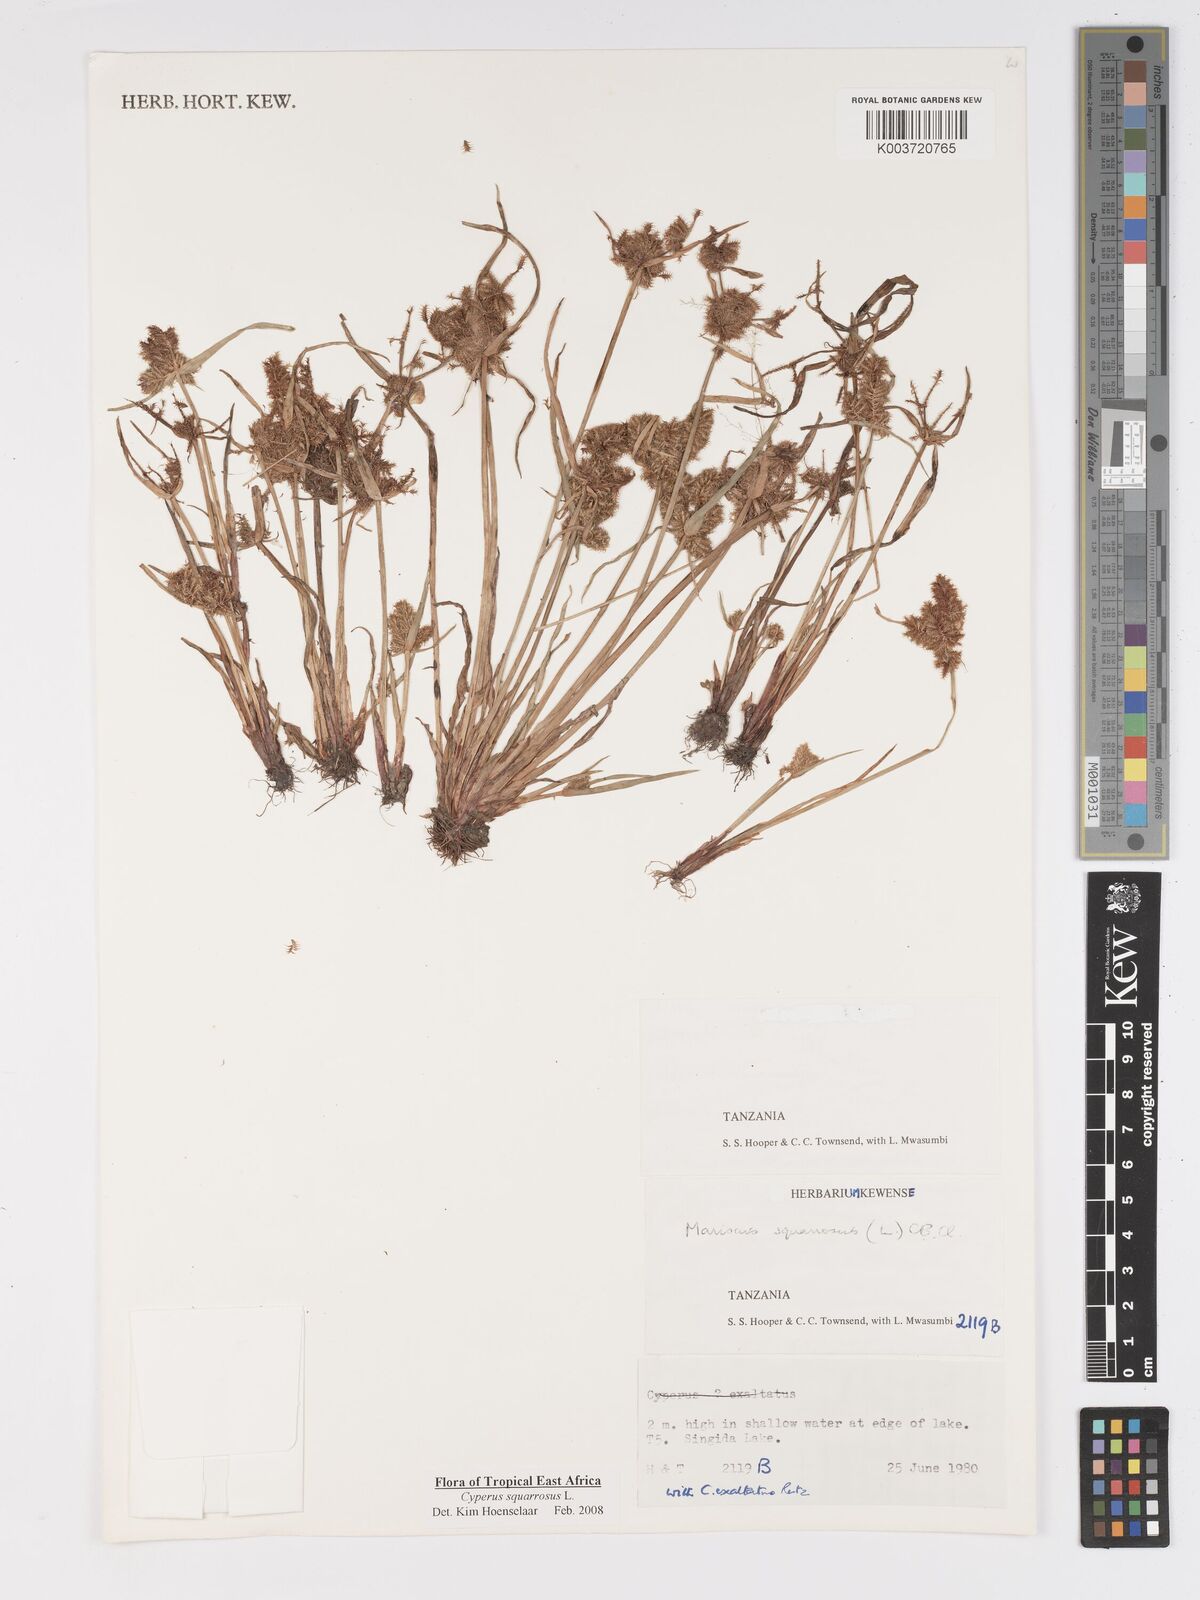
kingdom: Plantae
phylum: Tracheophyta
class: Liliopsida
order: Poales
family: Cyperaceae
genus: Cyperus
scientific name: Cyperus squarrosus
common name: Awned cyperus
